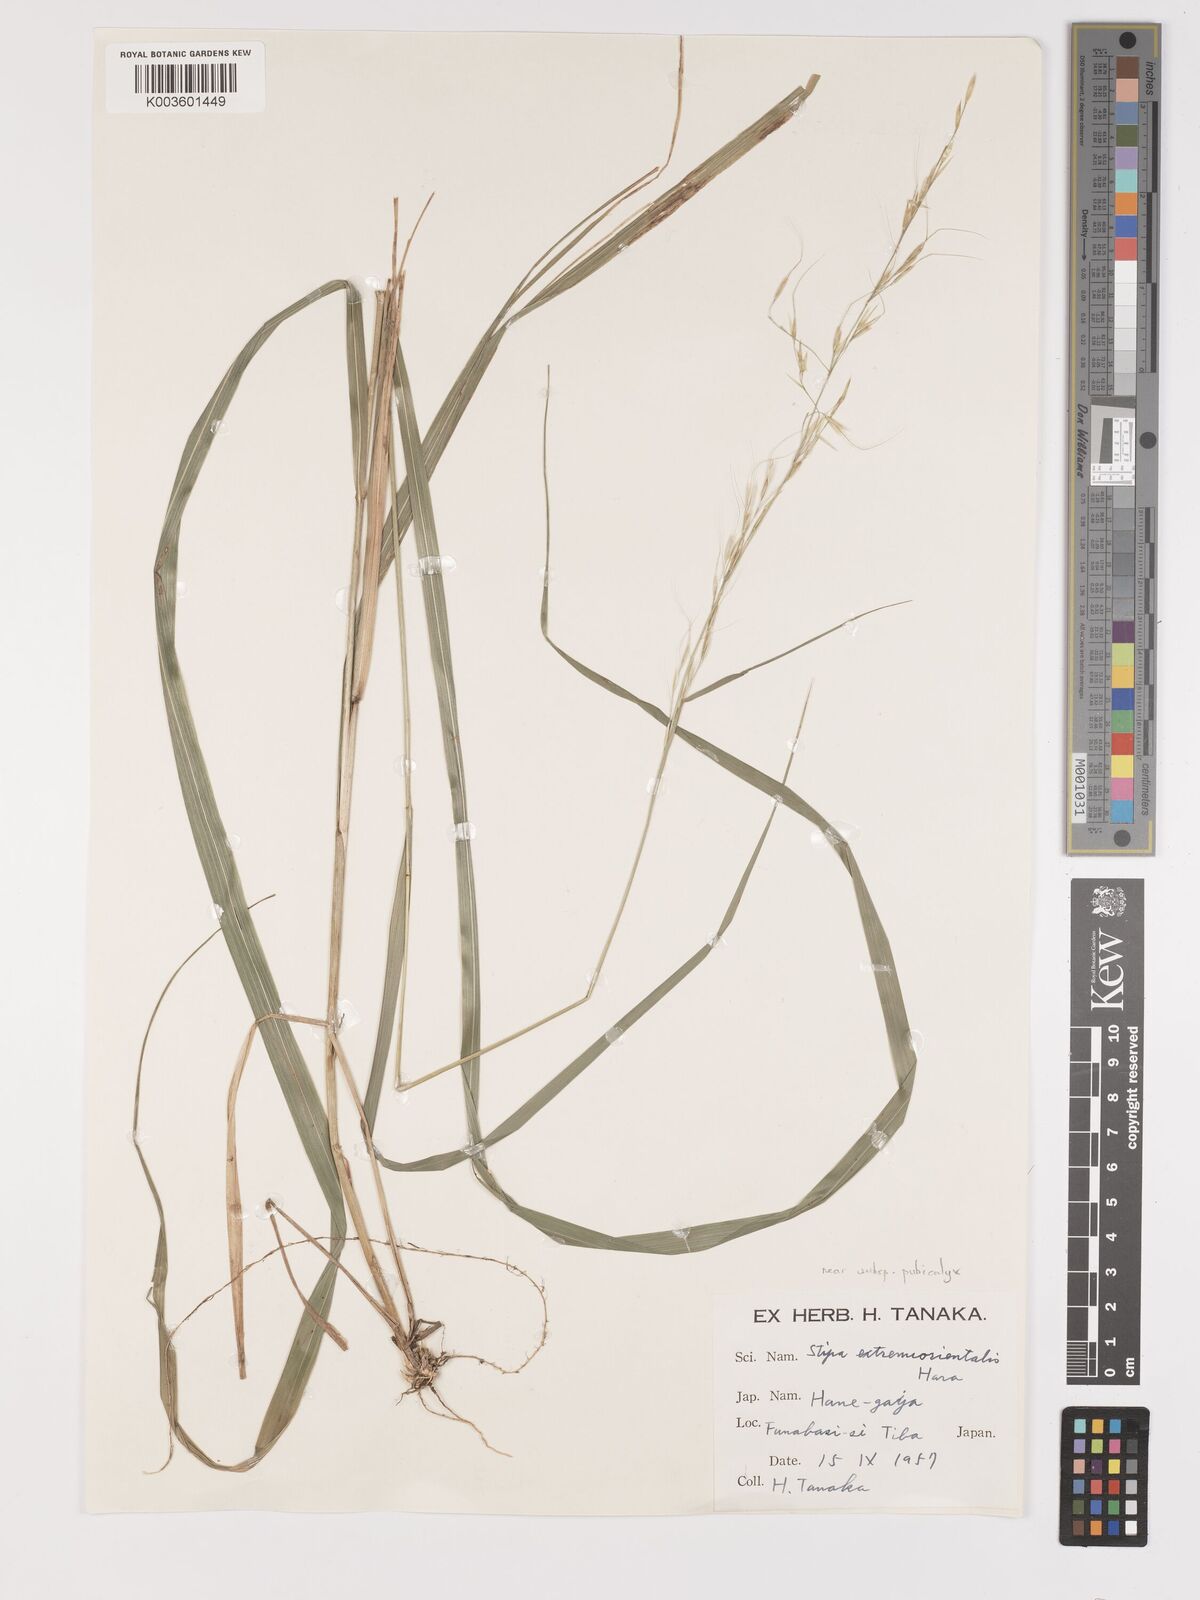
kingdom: Plantae
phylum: Tracheophyta
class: Liliopsida
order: Poales
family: Poaceae
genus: Achnatherum
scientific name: Achnatherum pekinense
